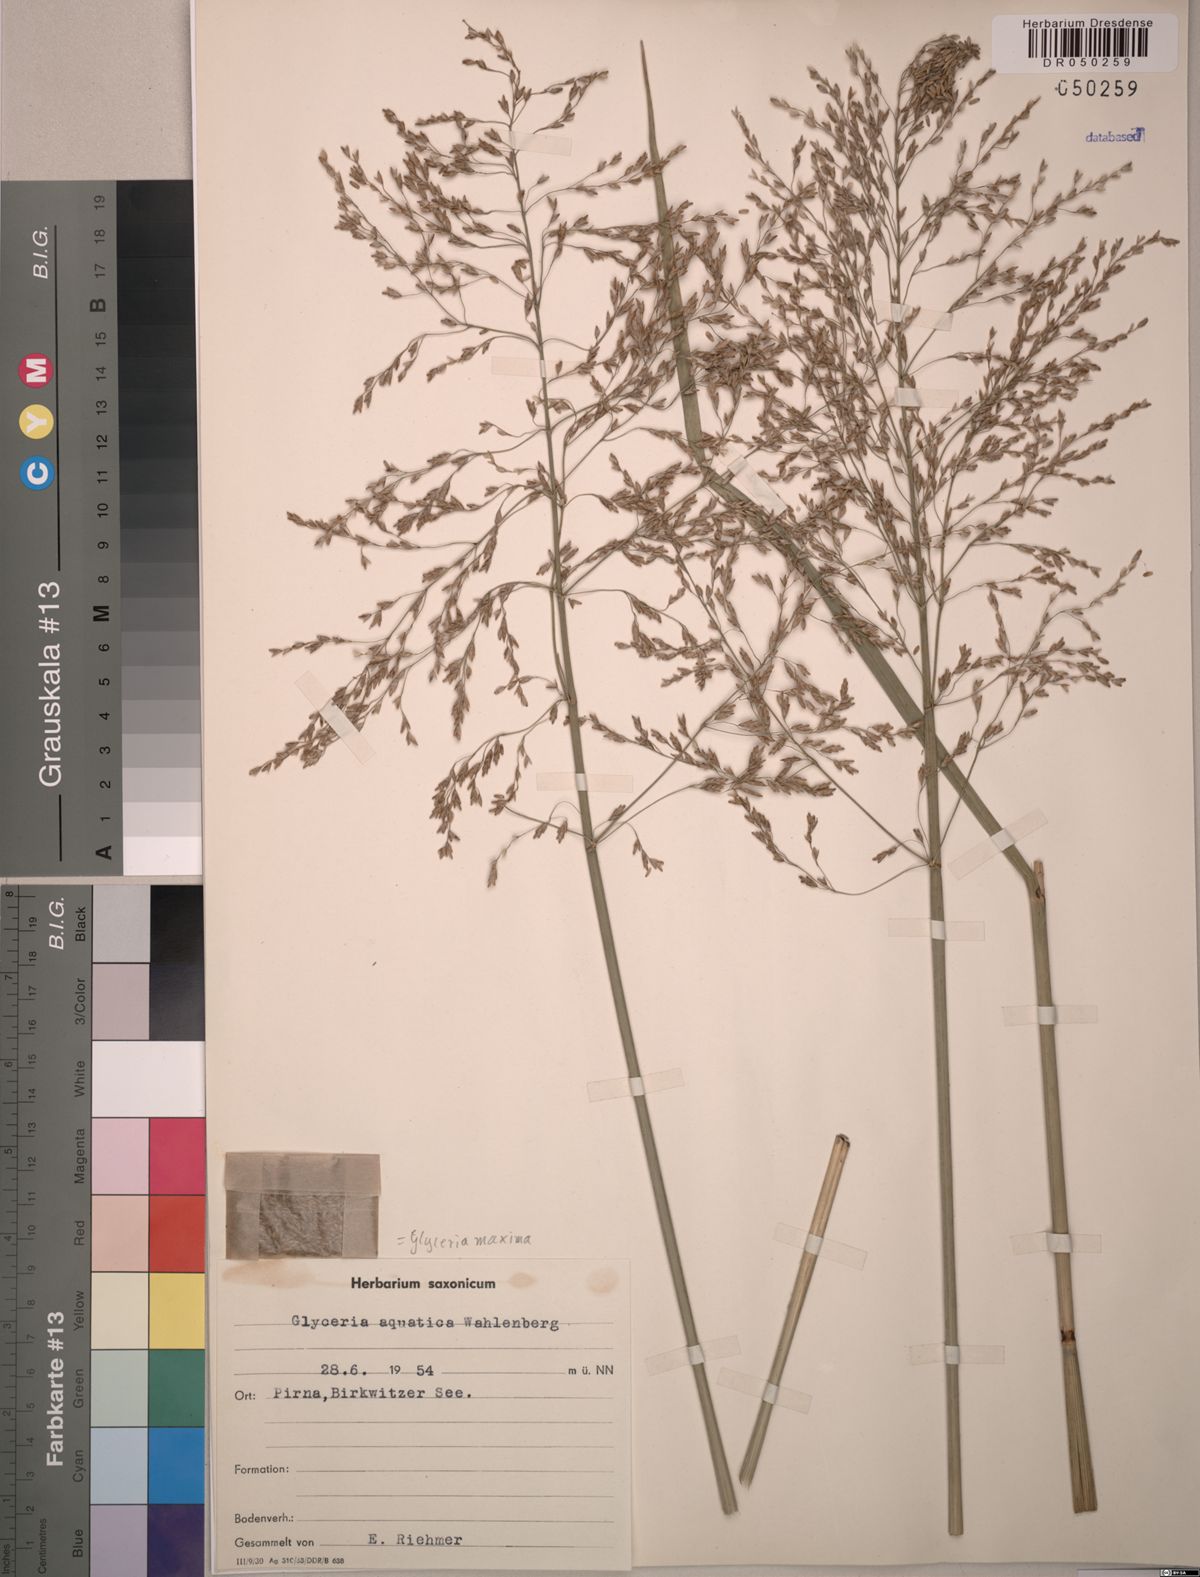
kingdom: Plantae
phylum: Tracheophyta
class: Liliopsida
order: Poales
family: Poaceae
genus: Glyceria
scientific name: Glyceria maxima
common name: Reed mannagrass
